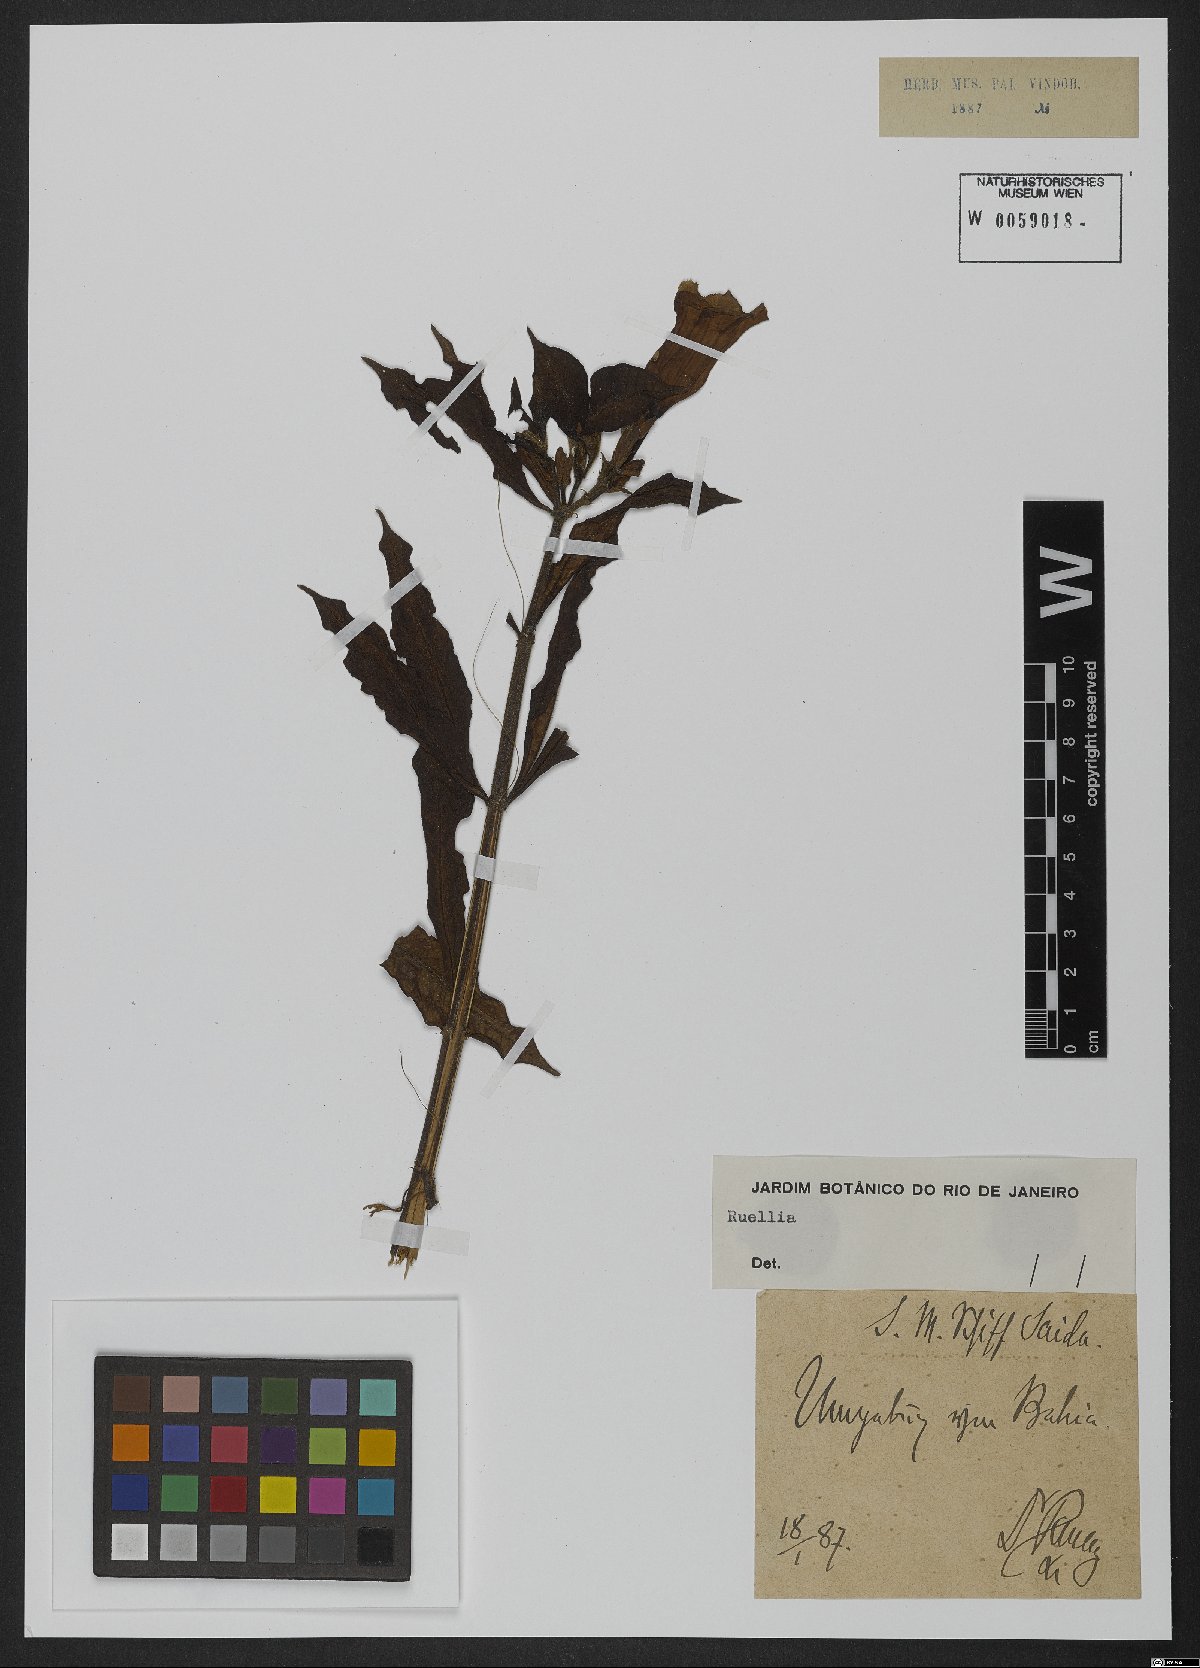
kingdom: Plantae
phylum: Tracheophyta
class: Magnoliopsida
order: Lamiales
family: Acanthaceae
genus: Ruellia
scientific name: Ruellia
